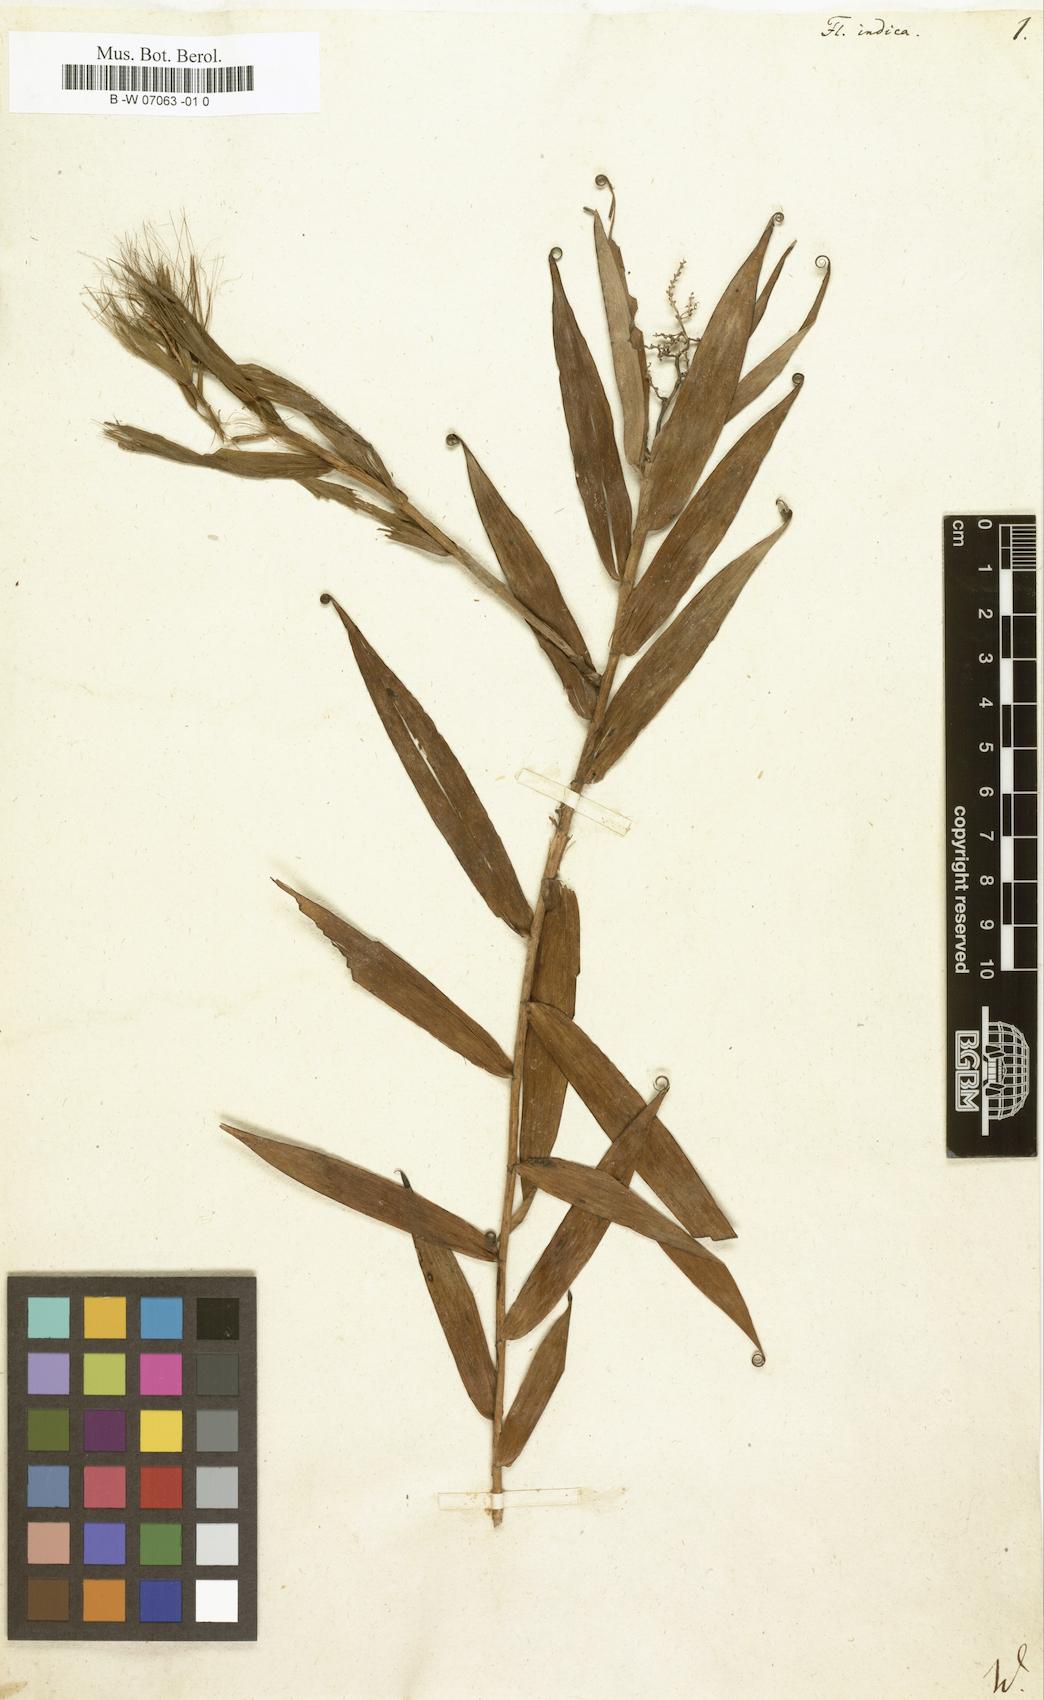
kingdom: Plantae
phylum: Tracheophyta
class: Liliopsida
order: Poales
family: Flagellariaceae
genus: Flagellaria
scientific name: Flagellaria indica
